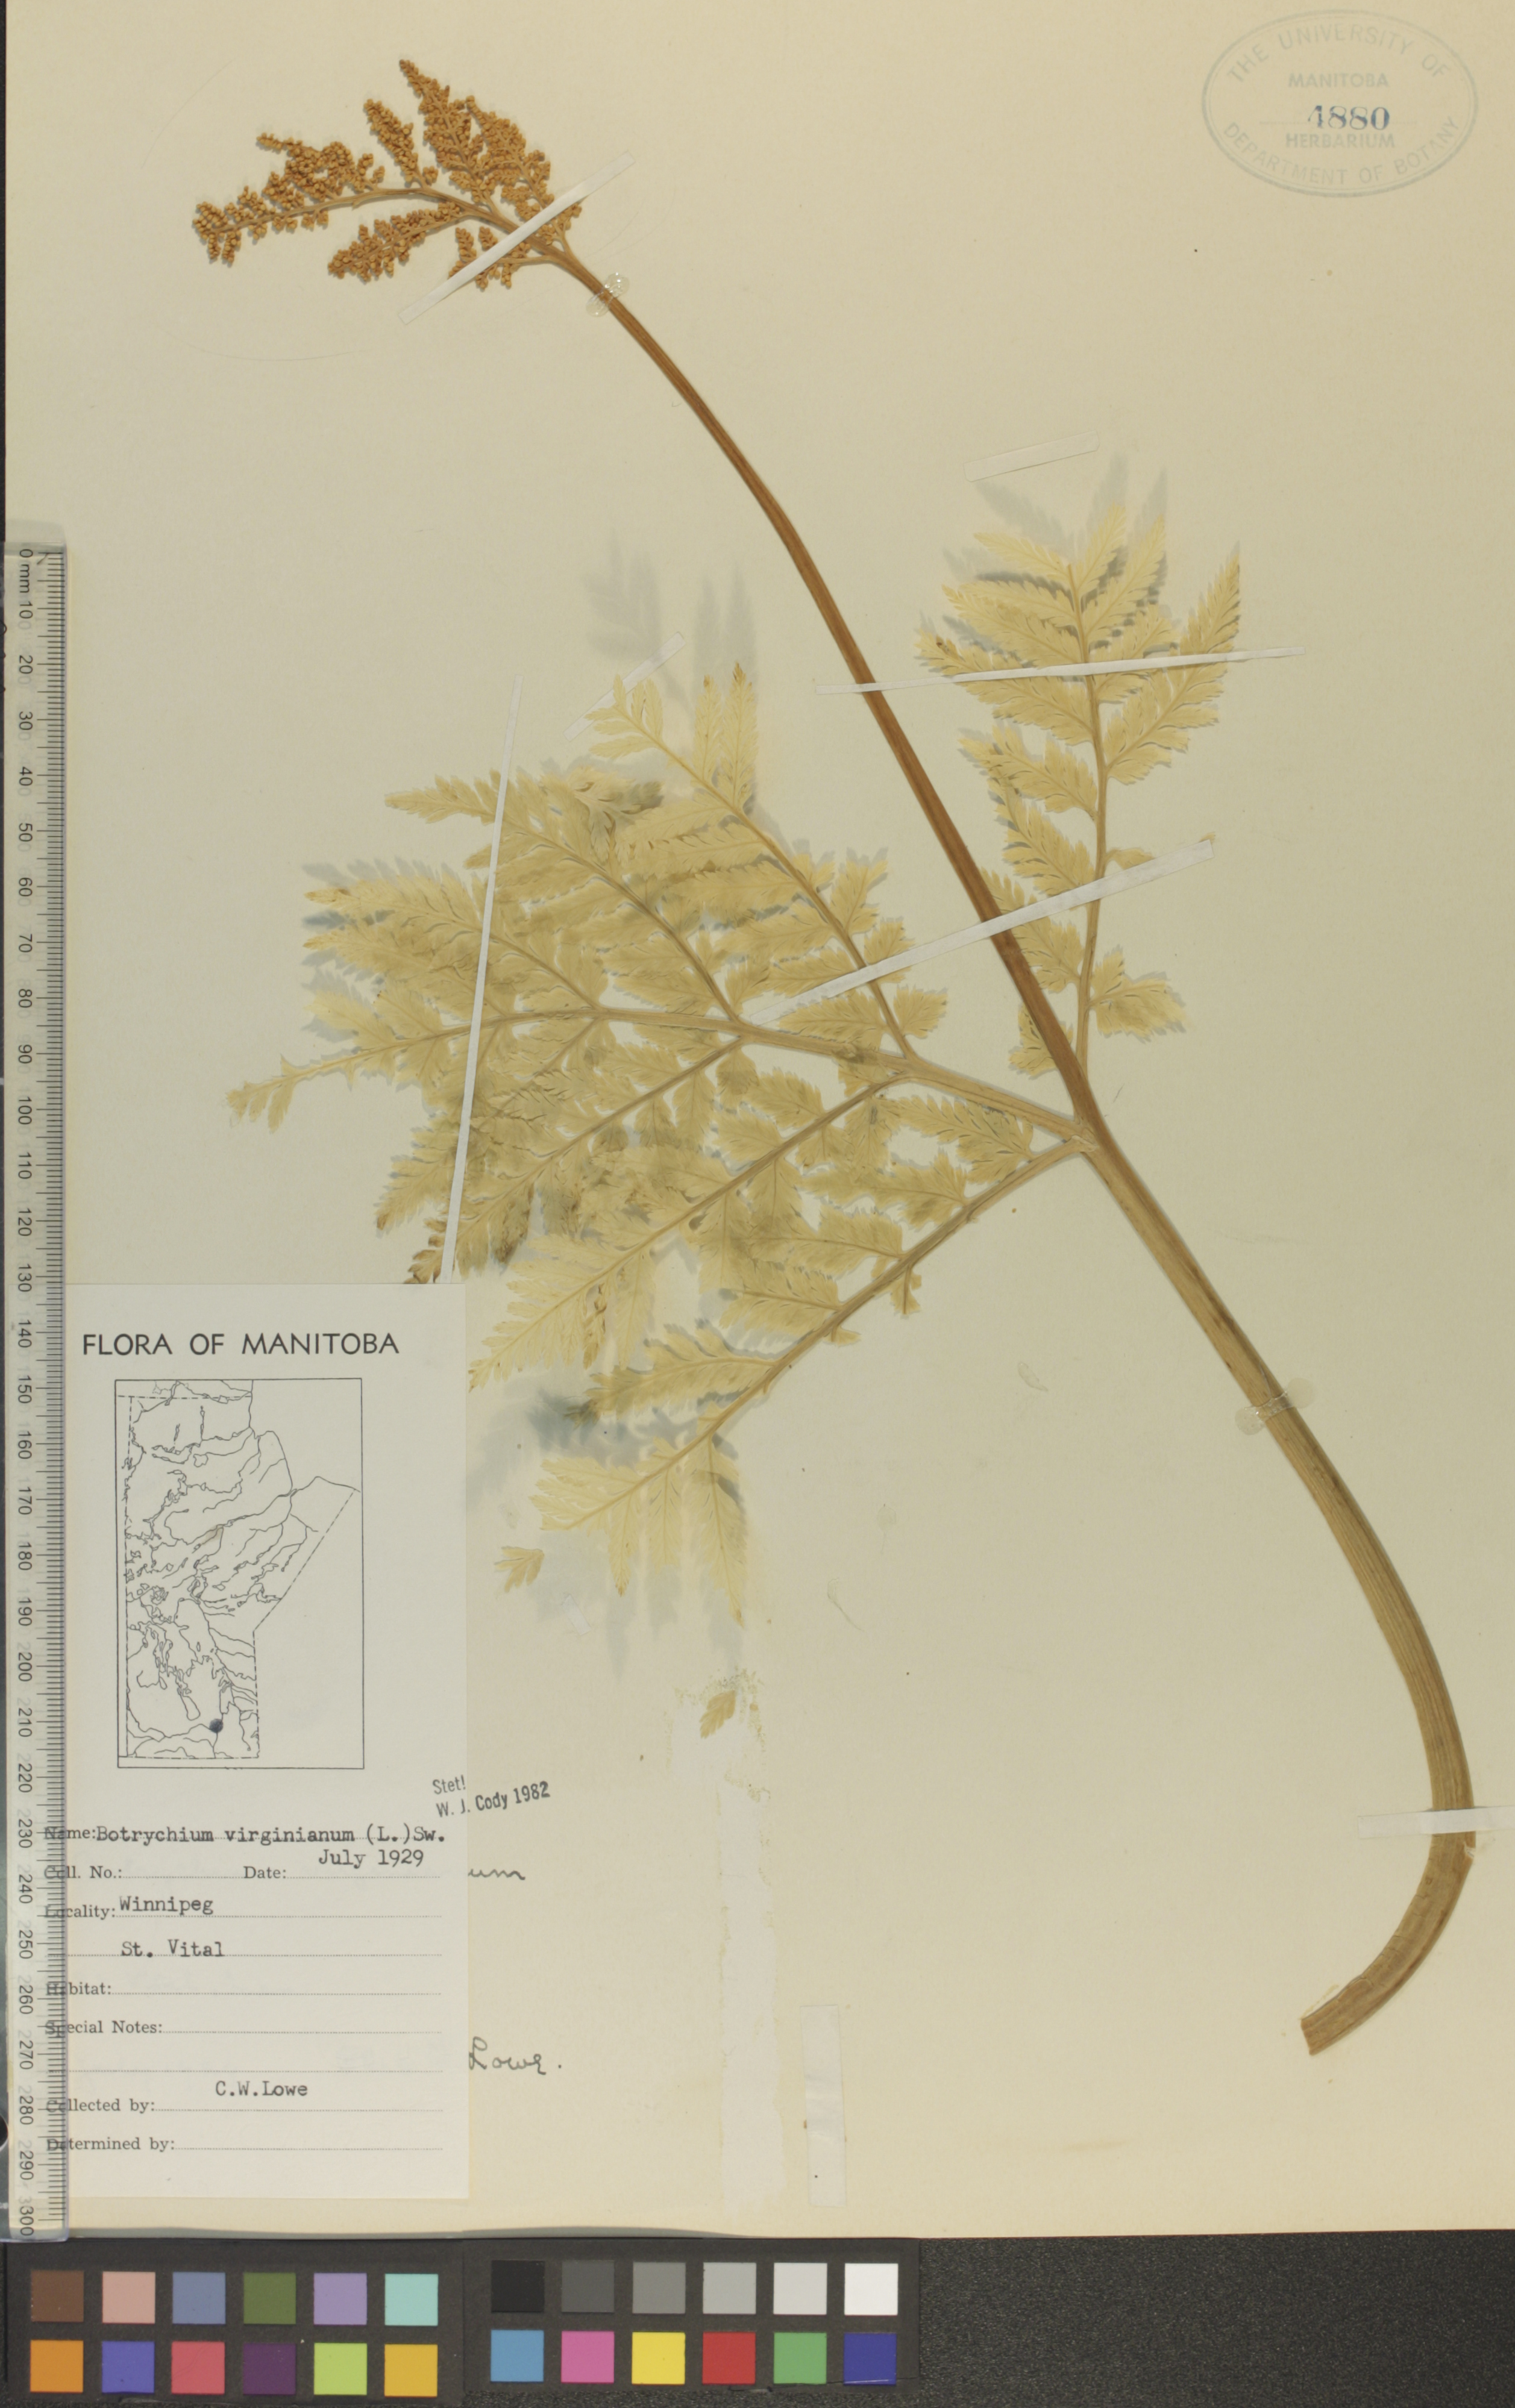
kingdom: Plantae
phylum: Tracheophyta
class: Polypodiopsida
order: Ophioglossales
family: Ophioglossaceae
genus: Botrypus
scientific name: Botrypus virginianus
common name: Common grapefern
